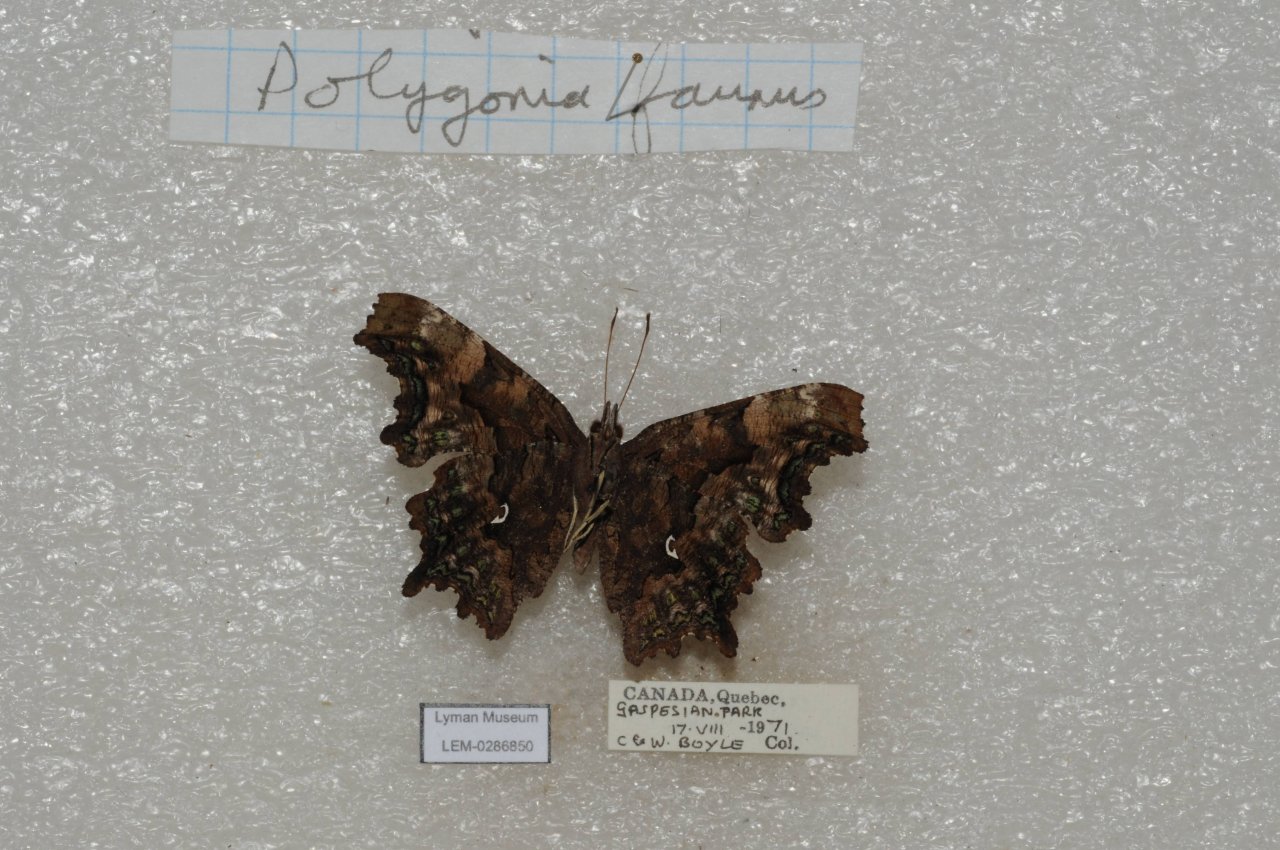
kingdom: Animalia
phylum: Arthropoda
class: Insecta
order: Lepidoptera
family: Nymphalidae
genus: Polygonia
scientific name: Polygonia faunus
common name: Green Comma
